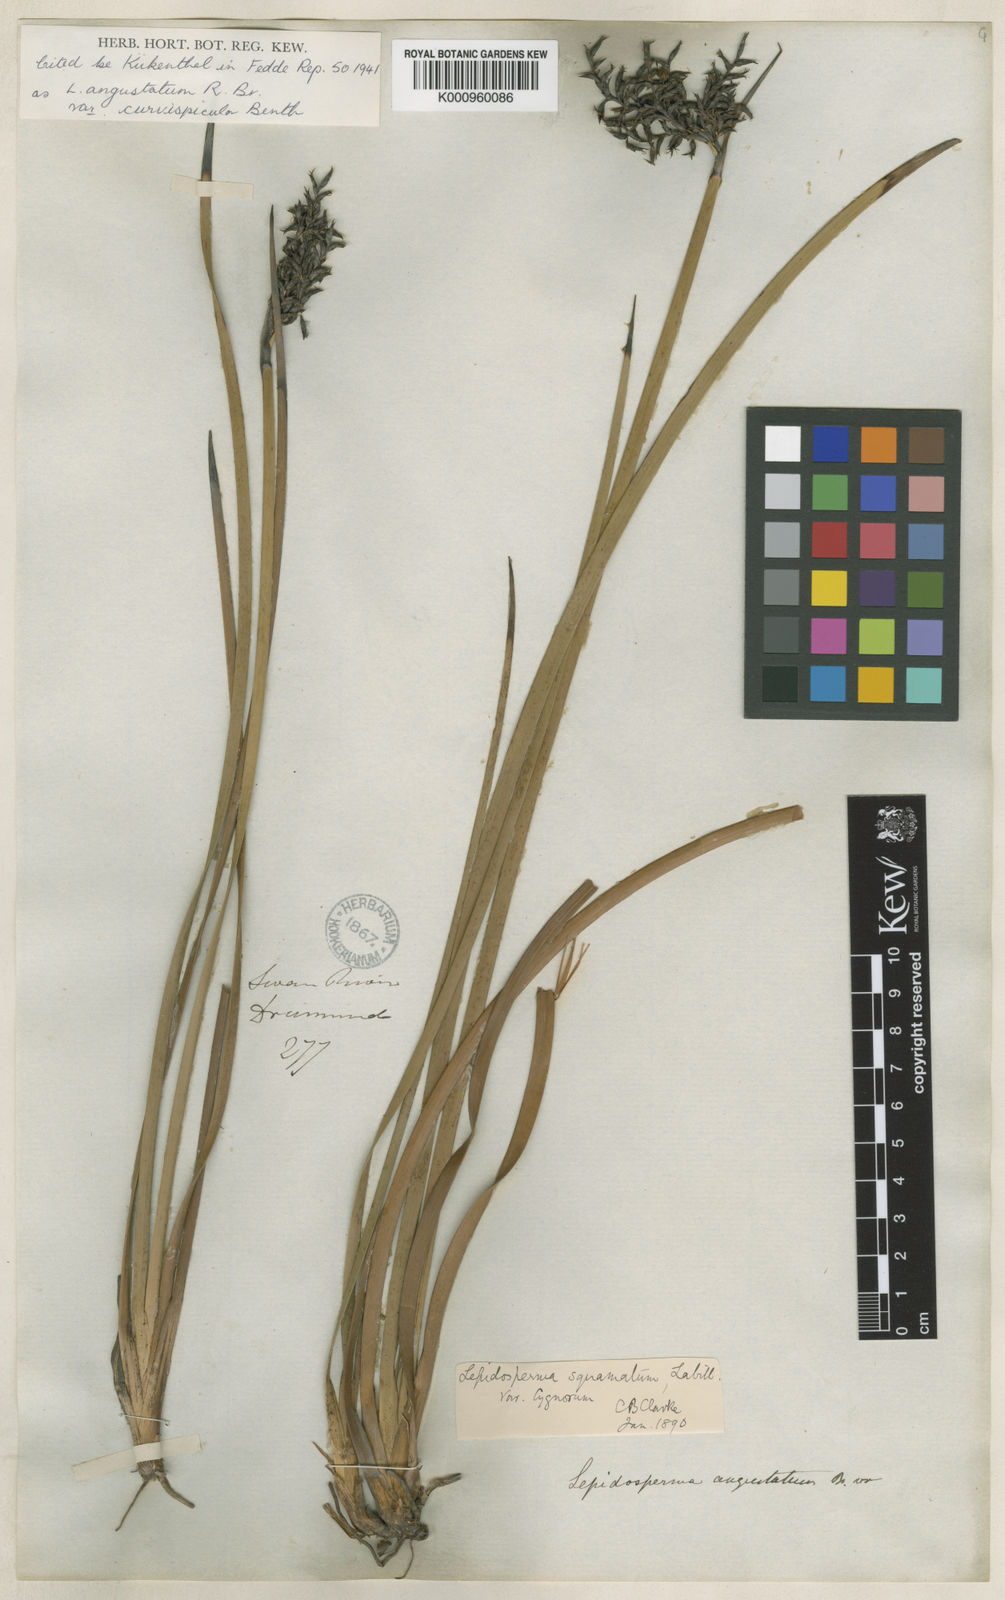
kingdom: Plantae
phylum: Tracheophyta
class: Liliopsida
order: Poales
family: Cyperaceae
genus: Lepidosperma
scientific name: Lepidosperma angustatum
